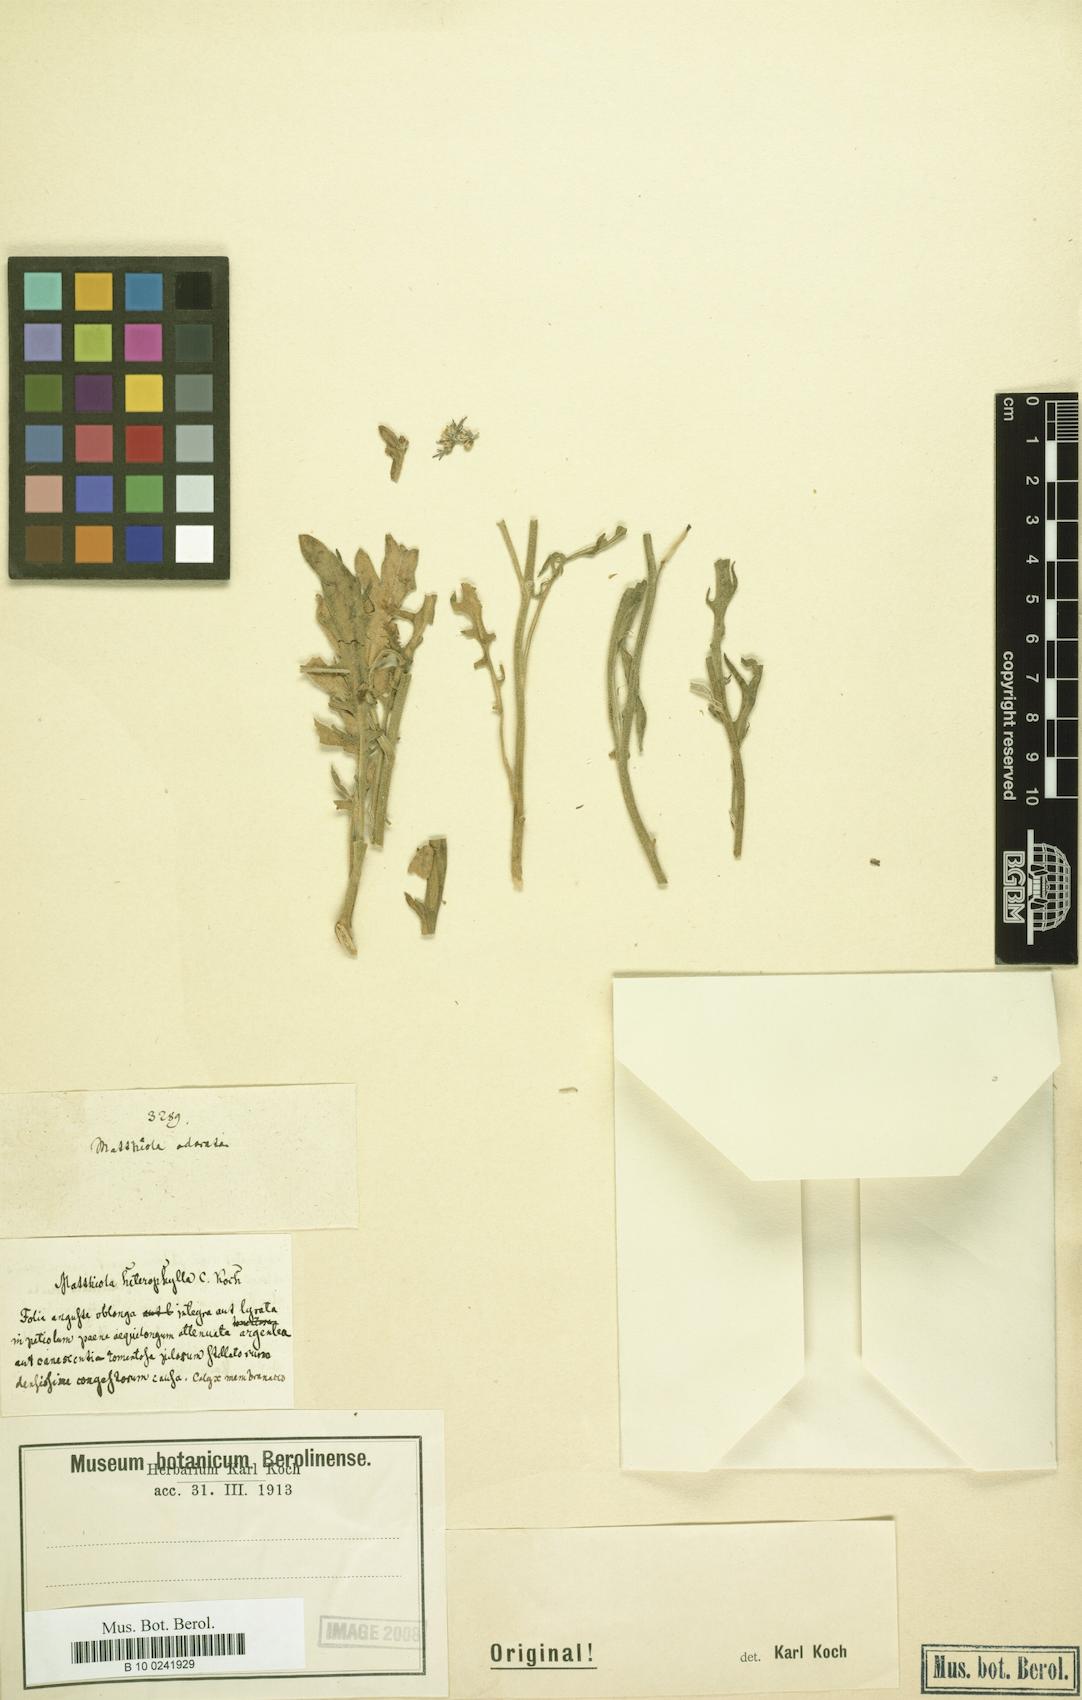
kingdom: Plantae
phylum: Tracheophyta
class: Magnoliopsida
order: Brassicales
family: Brassicaceae
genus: Matthiola
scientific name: Matthiola
